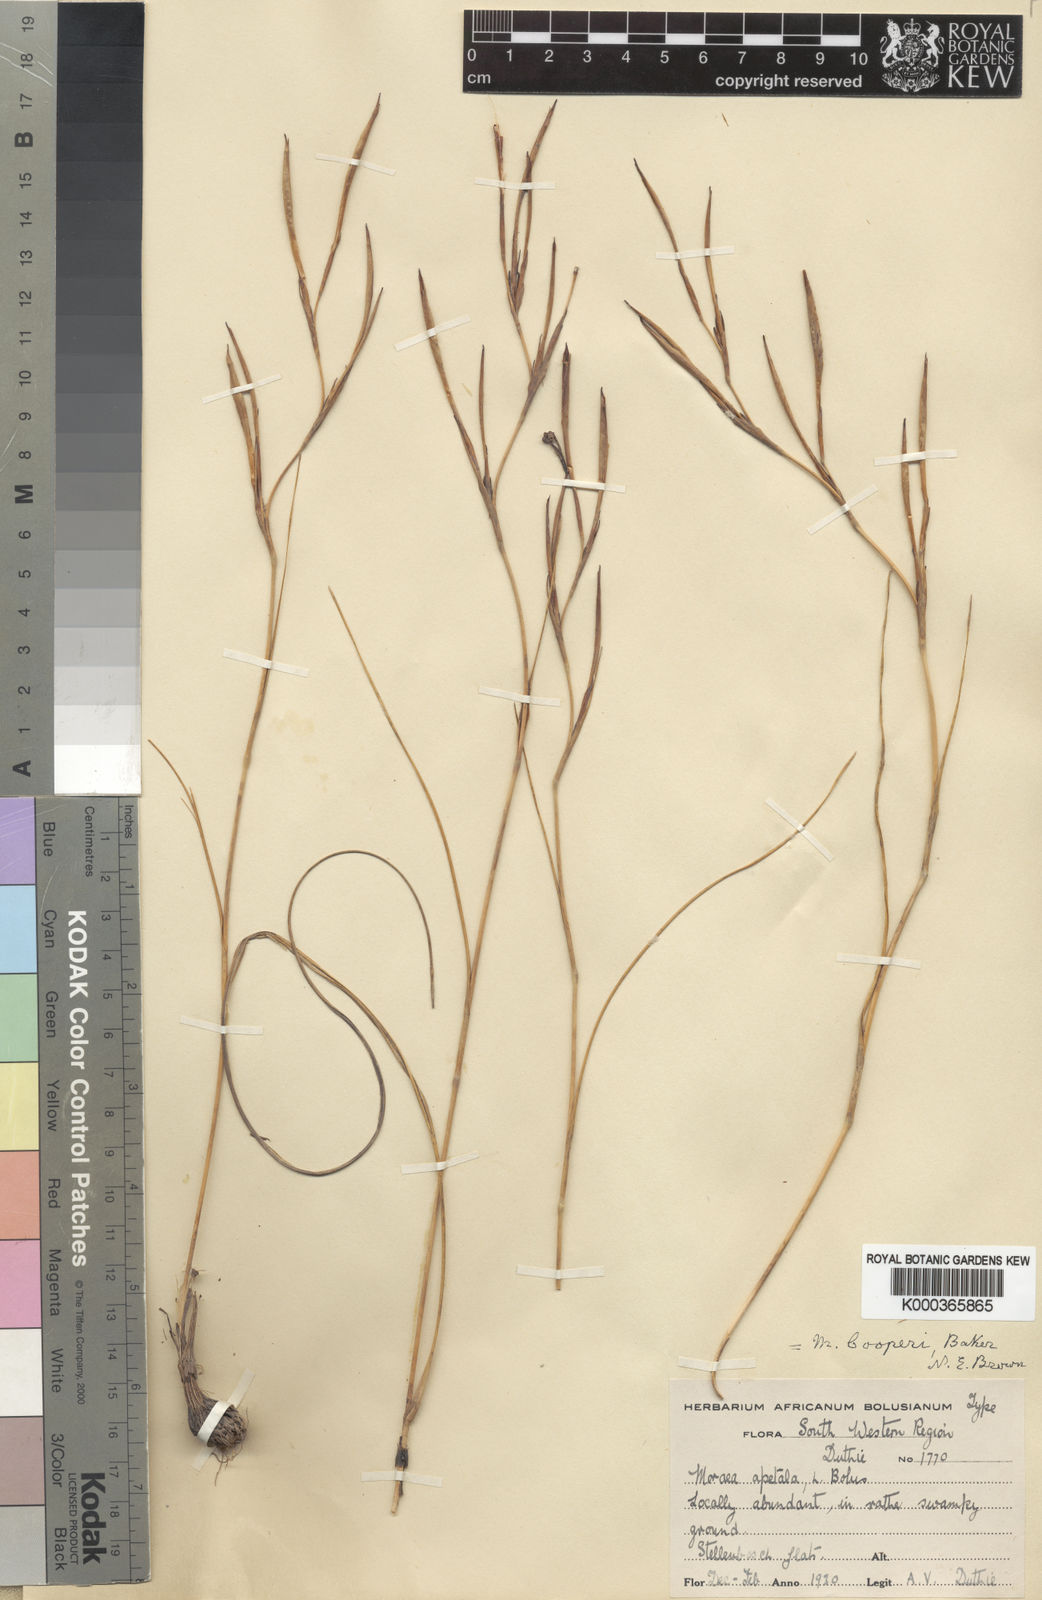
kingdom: Plantae
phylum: Tracheophyta
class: Liliopsida
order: Asparagales
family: Iridaceae
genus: Moraea
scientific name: Moraea cooperi
